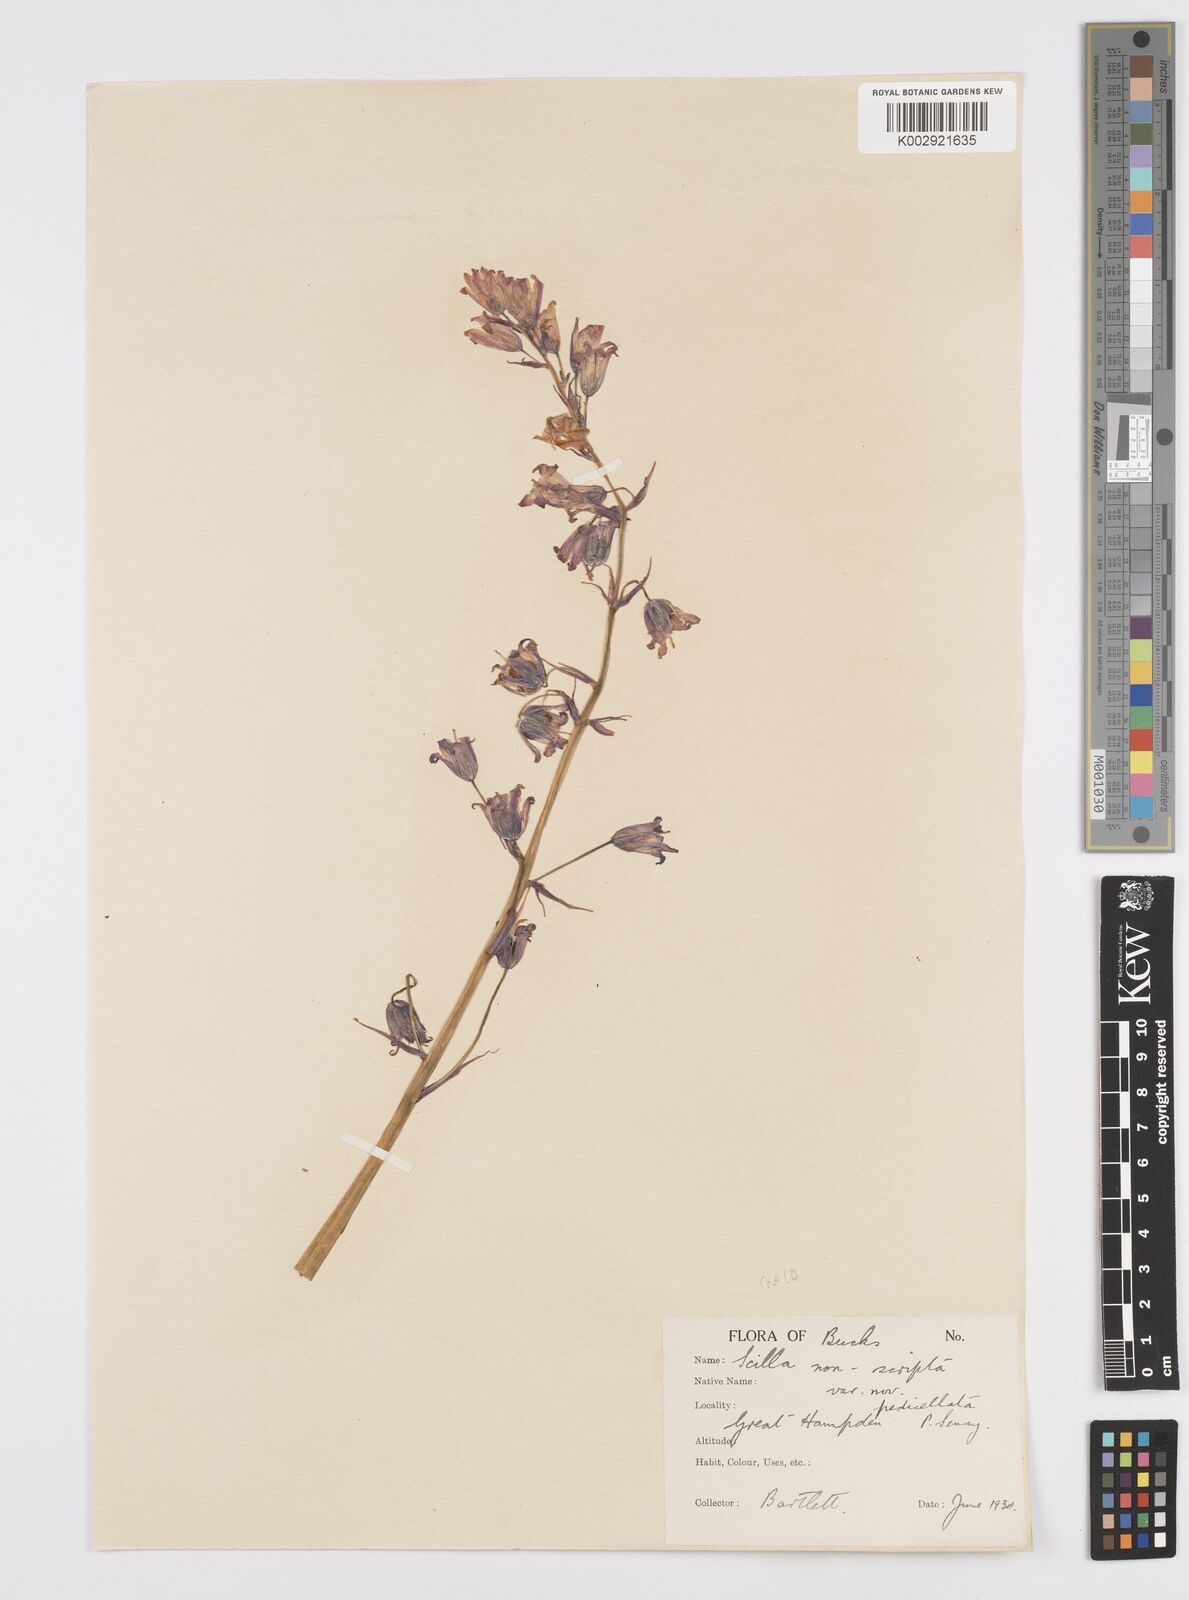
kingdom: Plantae
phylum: Tracheophyta
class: Liliopsida
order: Asparagales
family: Asparagaceae
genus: Hyacinthoides
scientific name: Hyacinthoides non-scripta
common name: Bluebell
